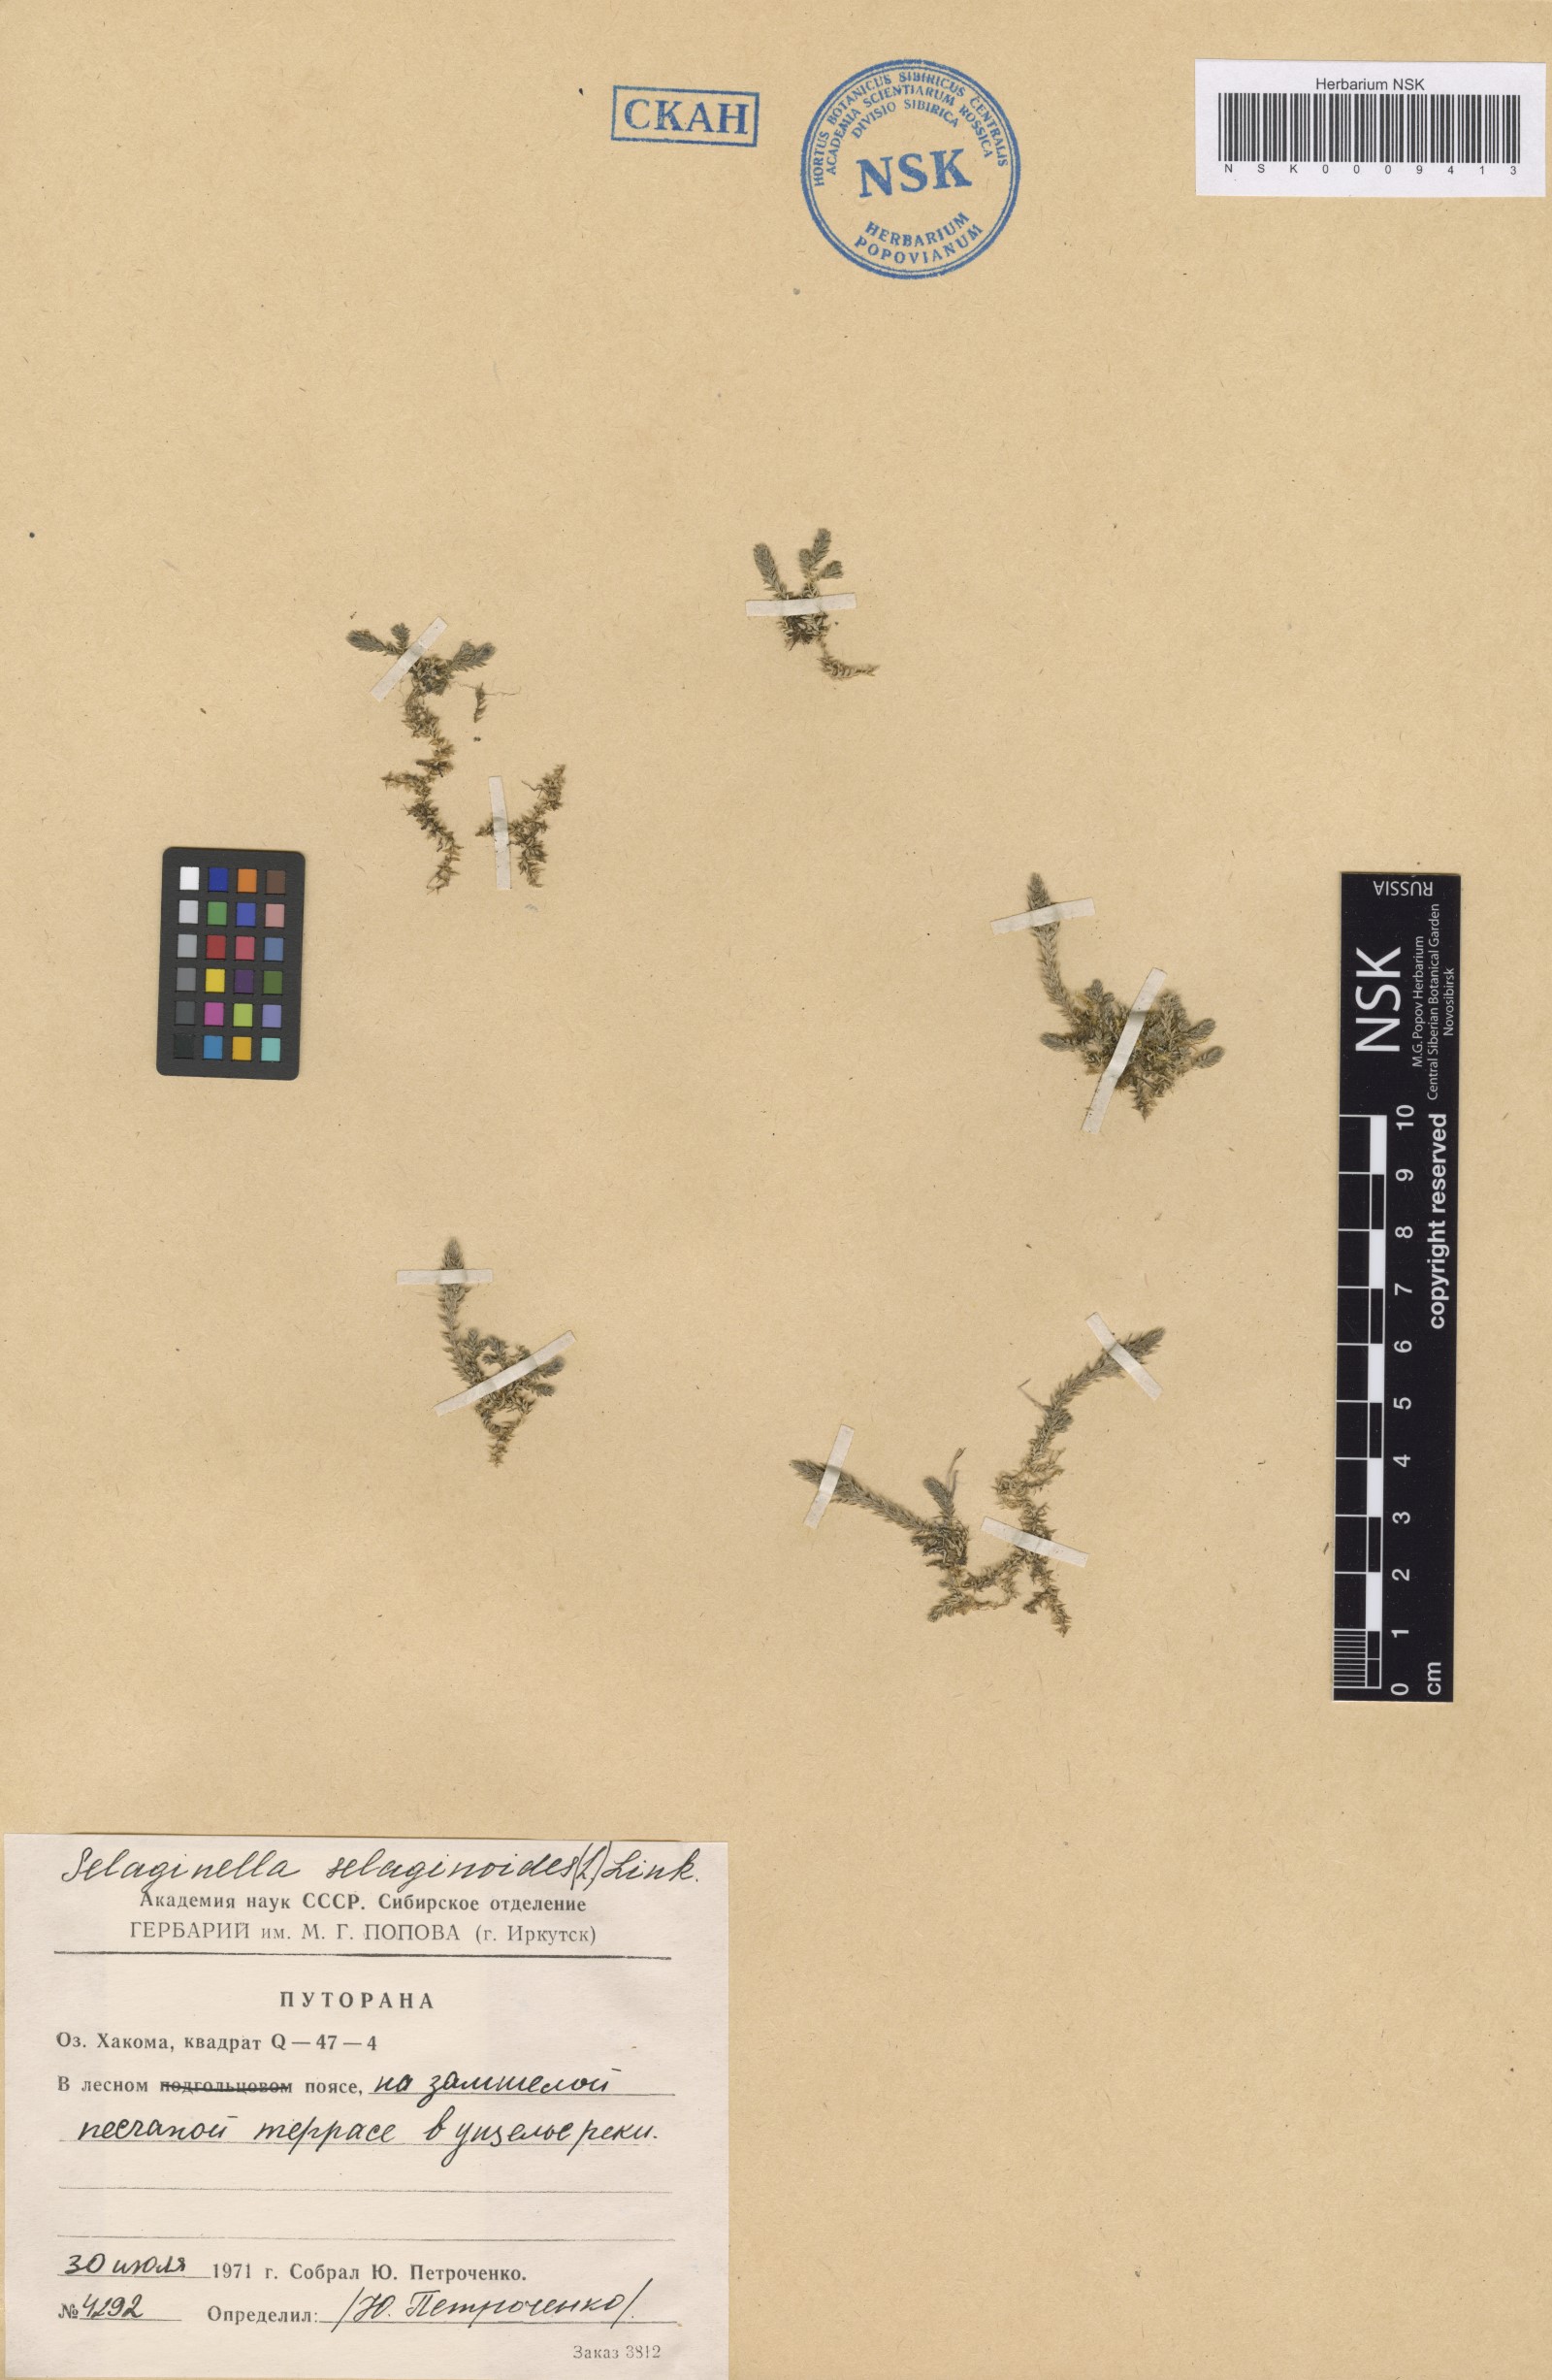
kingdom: Plantae
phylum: Tracheophyta
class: Lycopodiopsida
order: Selaginellales
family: Selaginellaceae
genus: Selaginella
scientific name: Selaginella selaginoides
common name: Prickly mountain-moss
